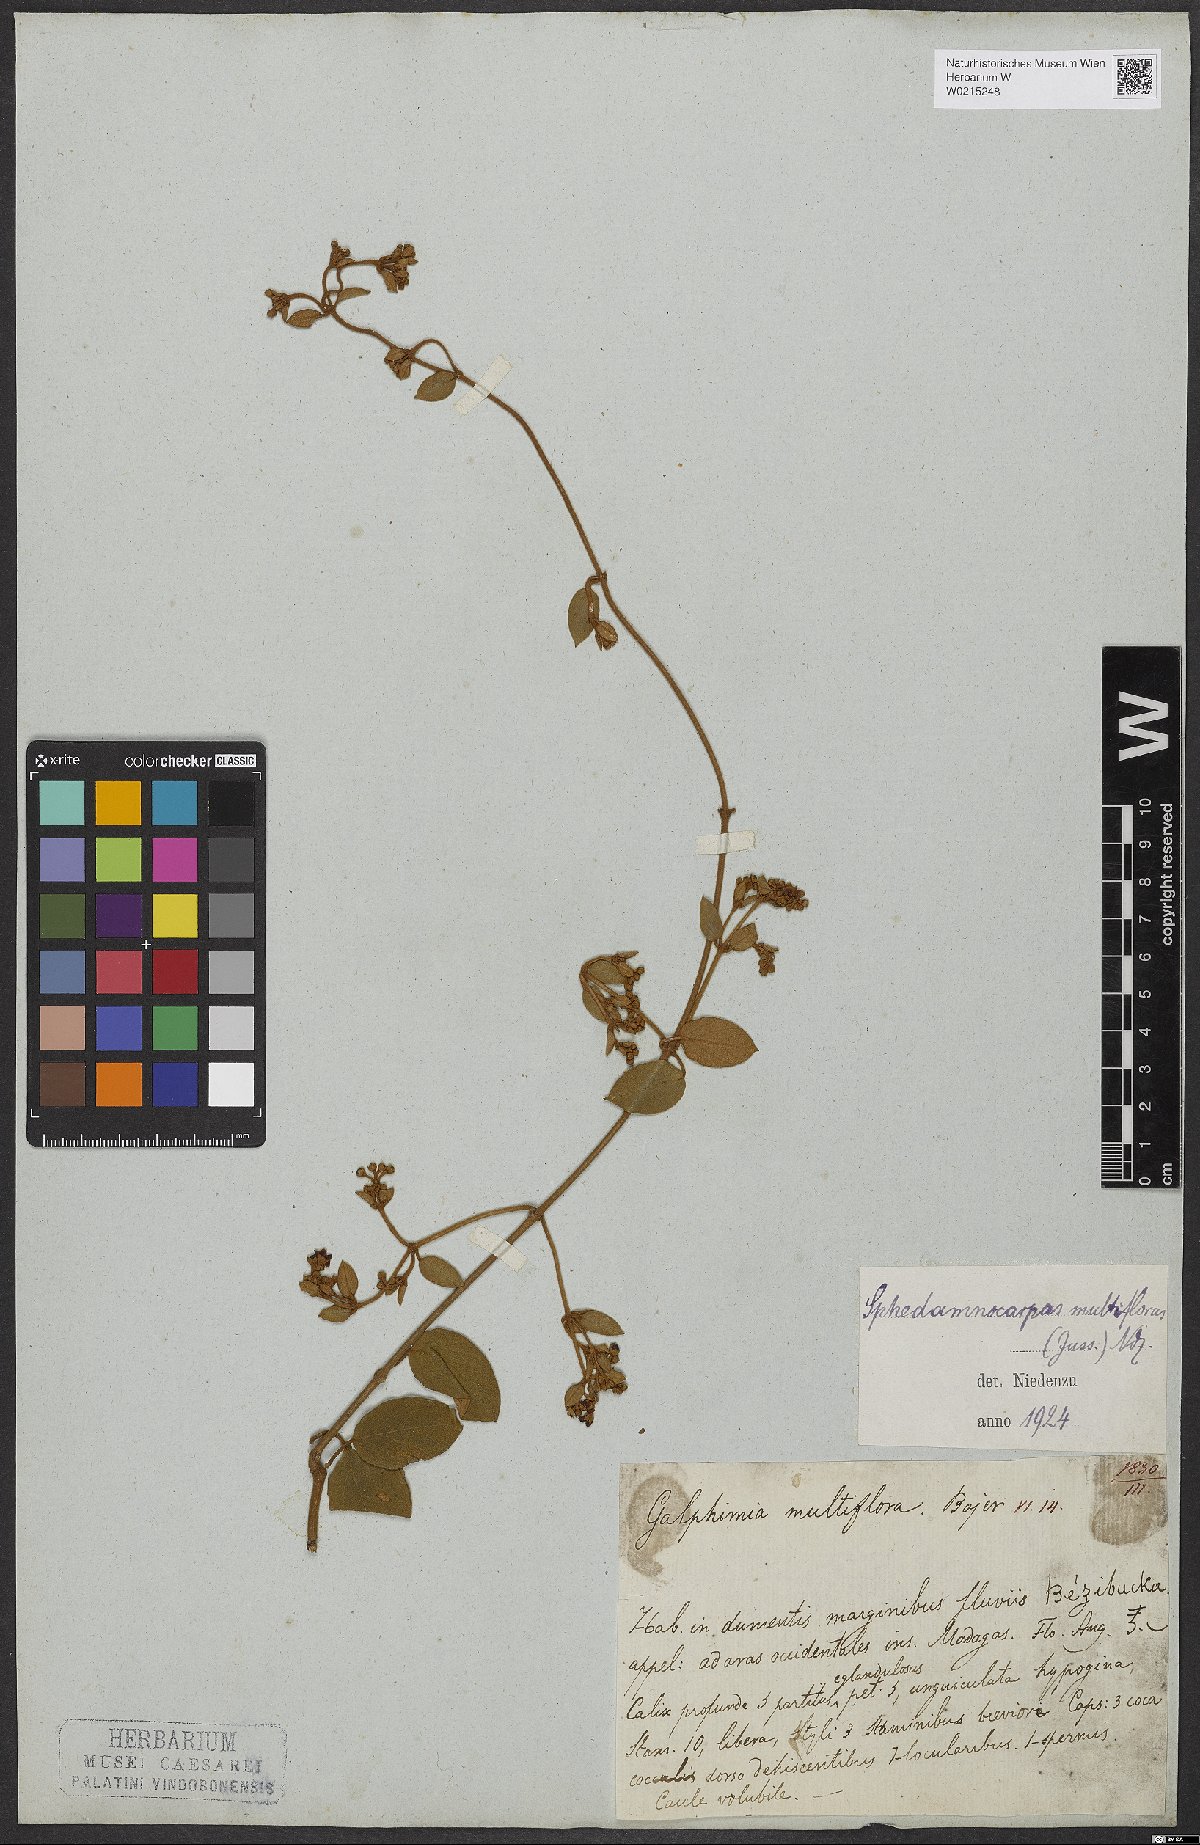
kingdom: Plantae
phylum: Tracheophyta
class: Magnoliopsida
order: Malpighiales
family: Malpighiaceae
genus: Sphedamnocarpus
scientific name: Sphedamnocarpus multiflorus
